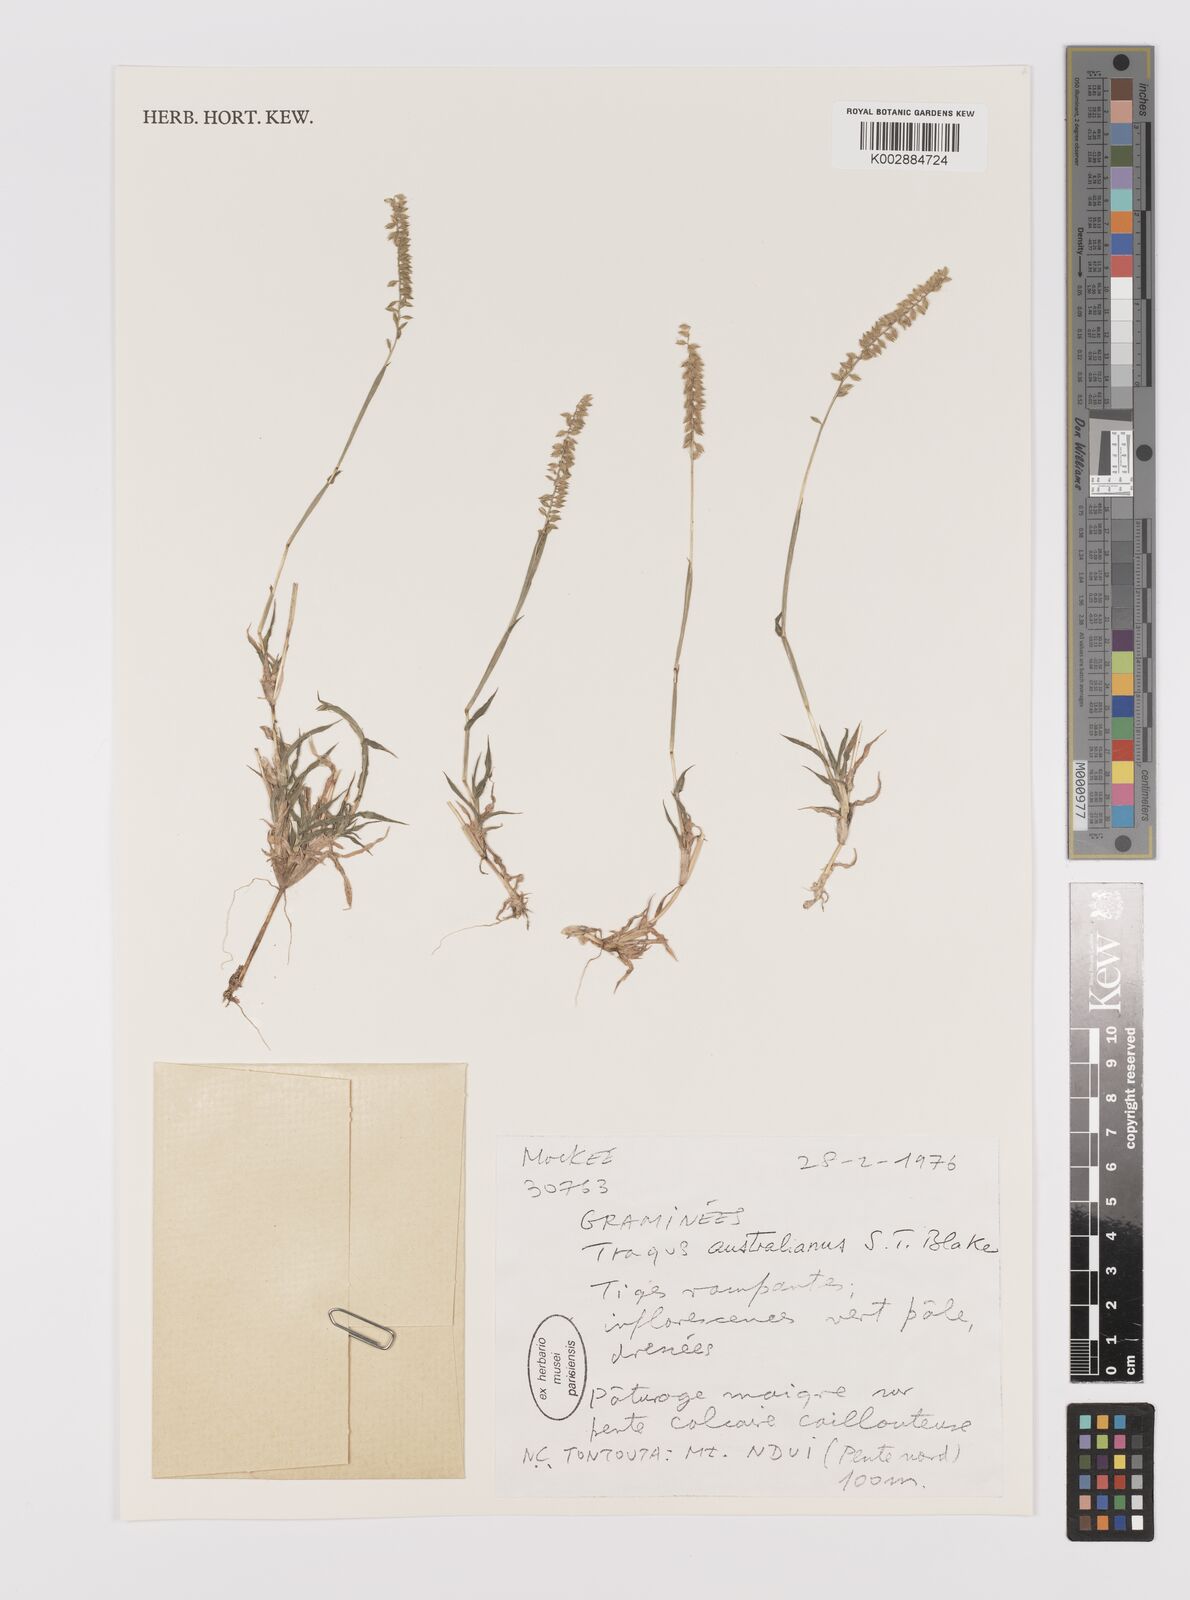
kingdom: Plantae
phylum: Tracheophyta
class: Liliopsida
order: Poales
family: Poaceae
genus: Tragus
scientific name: Tragus australianus
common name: Australian bur-grass
